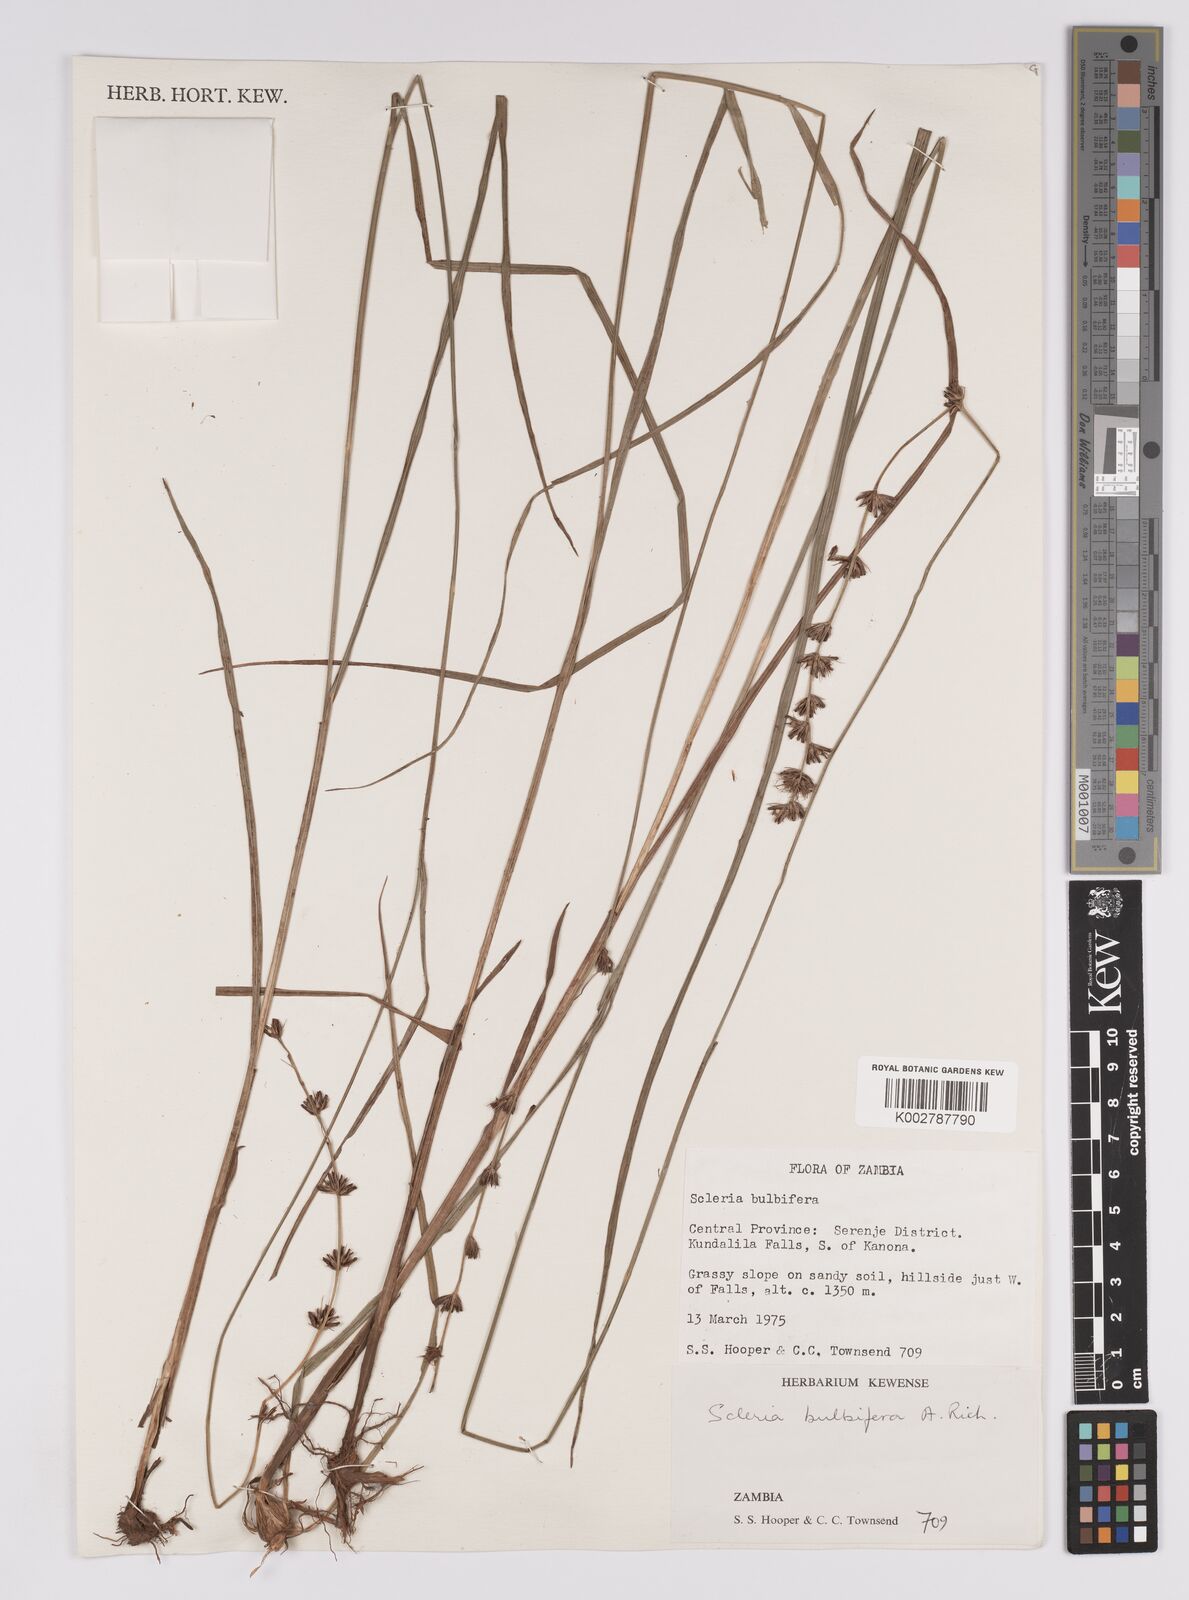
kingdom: Plantae
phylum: Tracheophyta
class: Liliopsida
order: Poales
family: Cyperaceae
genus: Scleria
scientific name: Scleria bulbifera
